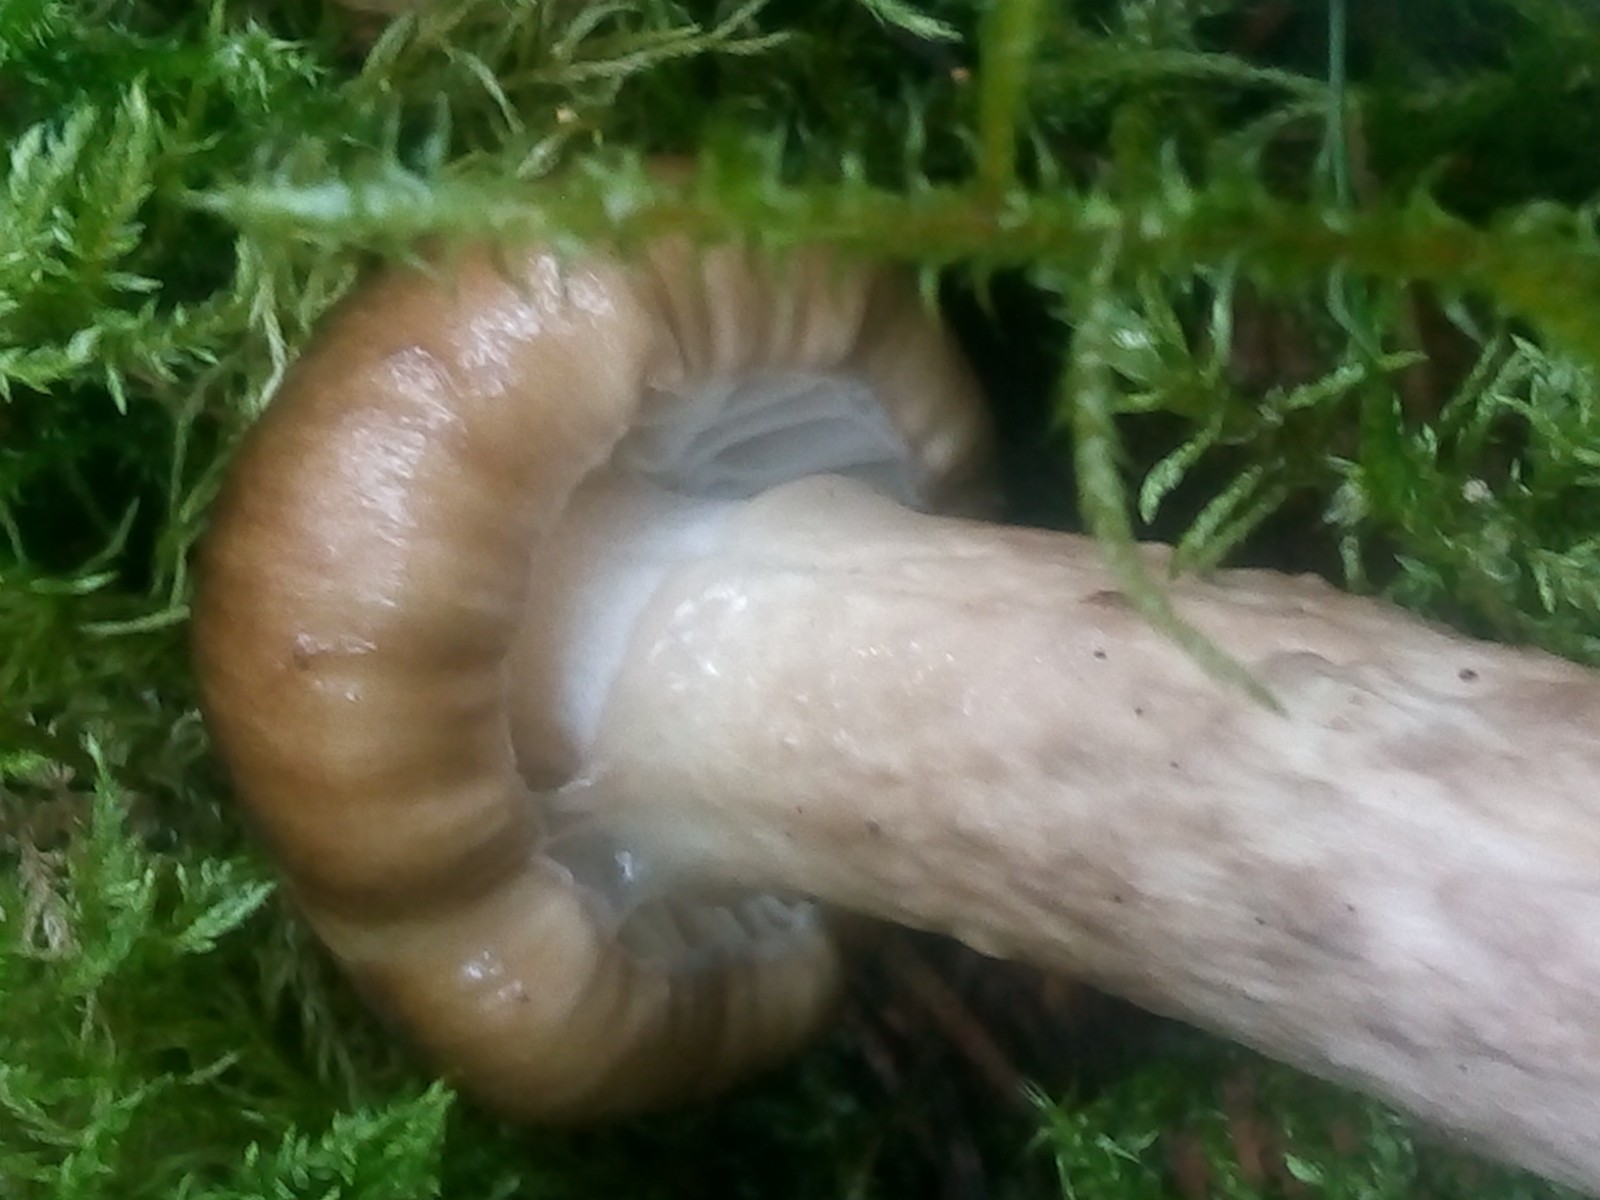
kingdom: Fungi
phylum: Basidiomycota
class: Agaricomycetes
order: Agaricales
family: Hygrophoraceae
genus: Hygrophorus
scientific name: Hygrophorus olivaceoalbus
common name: hvidbrun sneglehat
